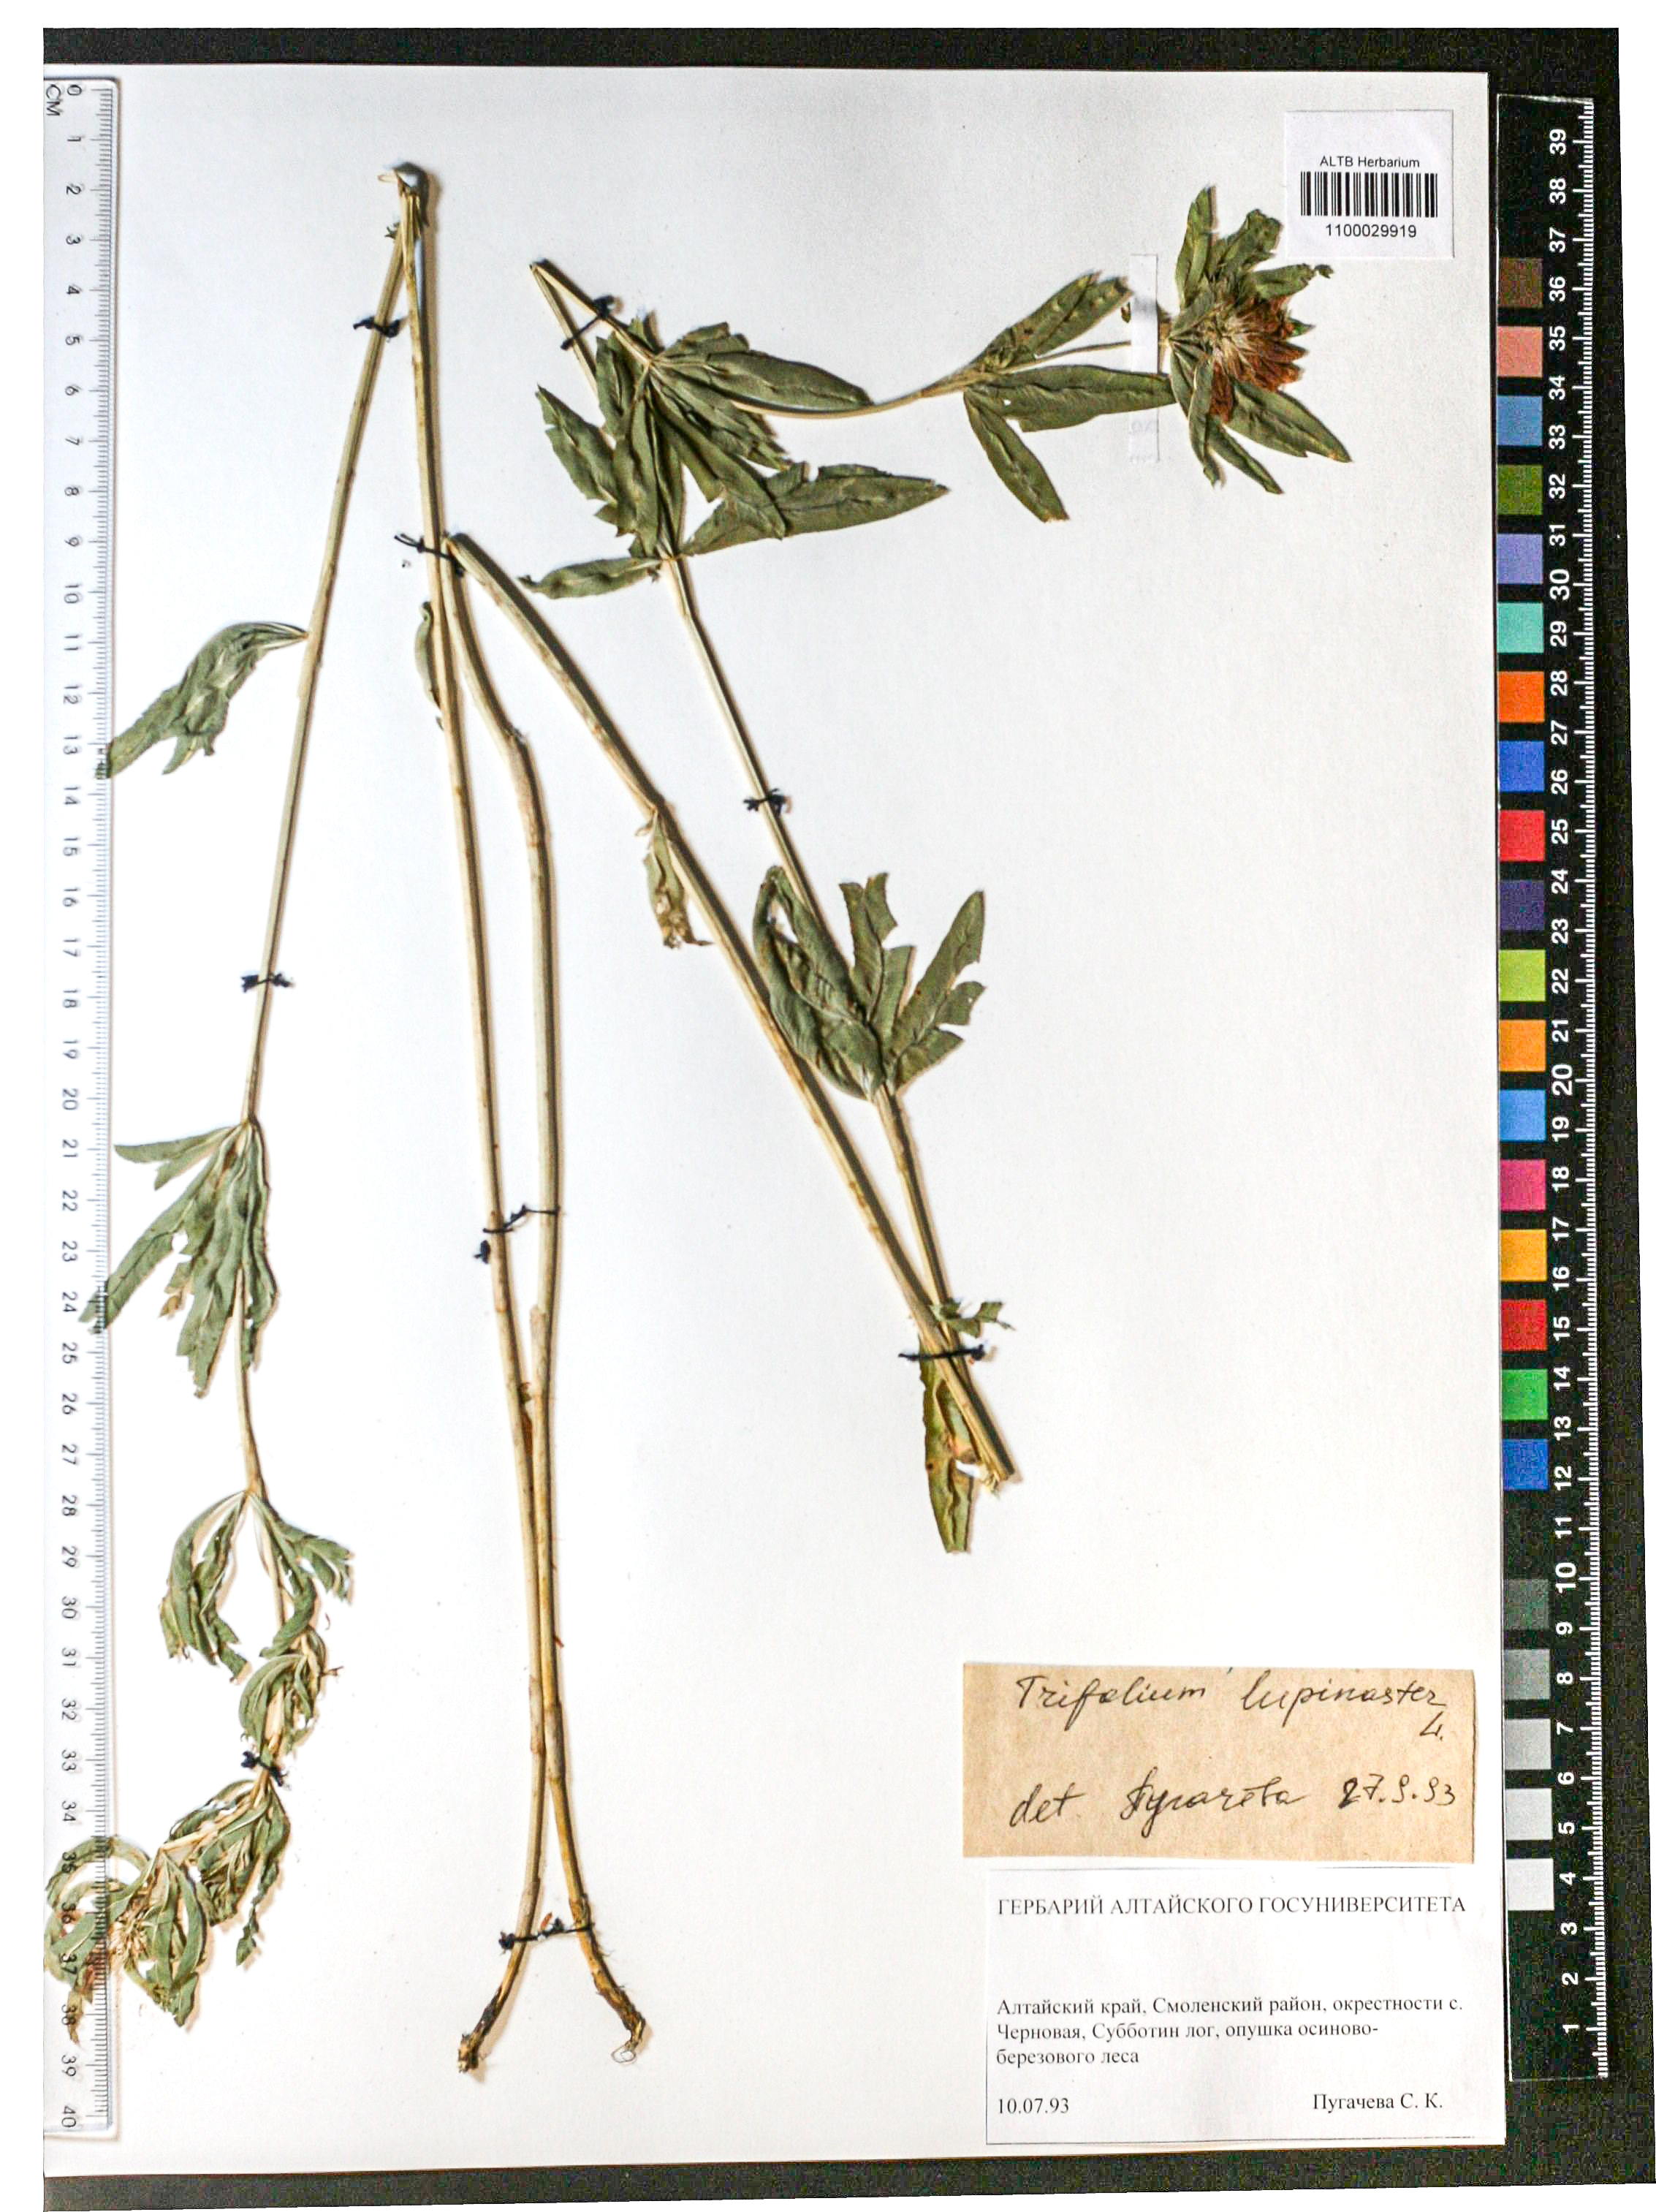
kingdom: Plantae
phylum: Tracheophyta
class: Magnoliopsida
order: Fabales
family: Fabaceae
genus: Trifolium
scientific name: Trifolium lupinaster
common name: Lupine clover
